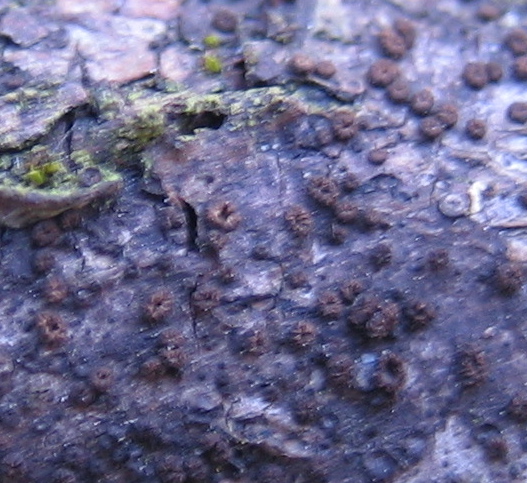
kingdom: Fungi
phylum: Ascomycota
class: Leotiomycetes
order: Helotiales
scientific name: Helotiales
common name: stilkskiveordenen
